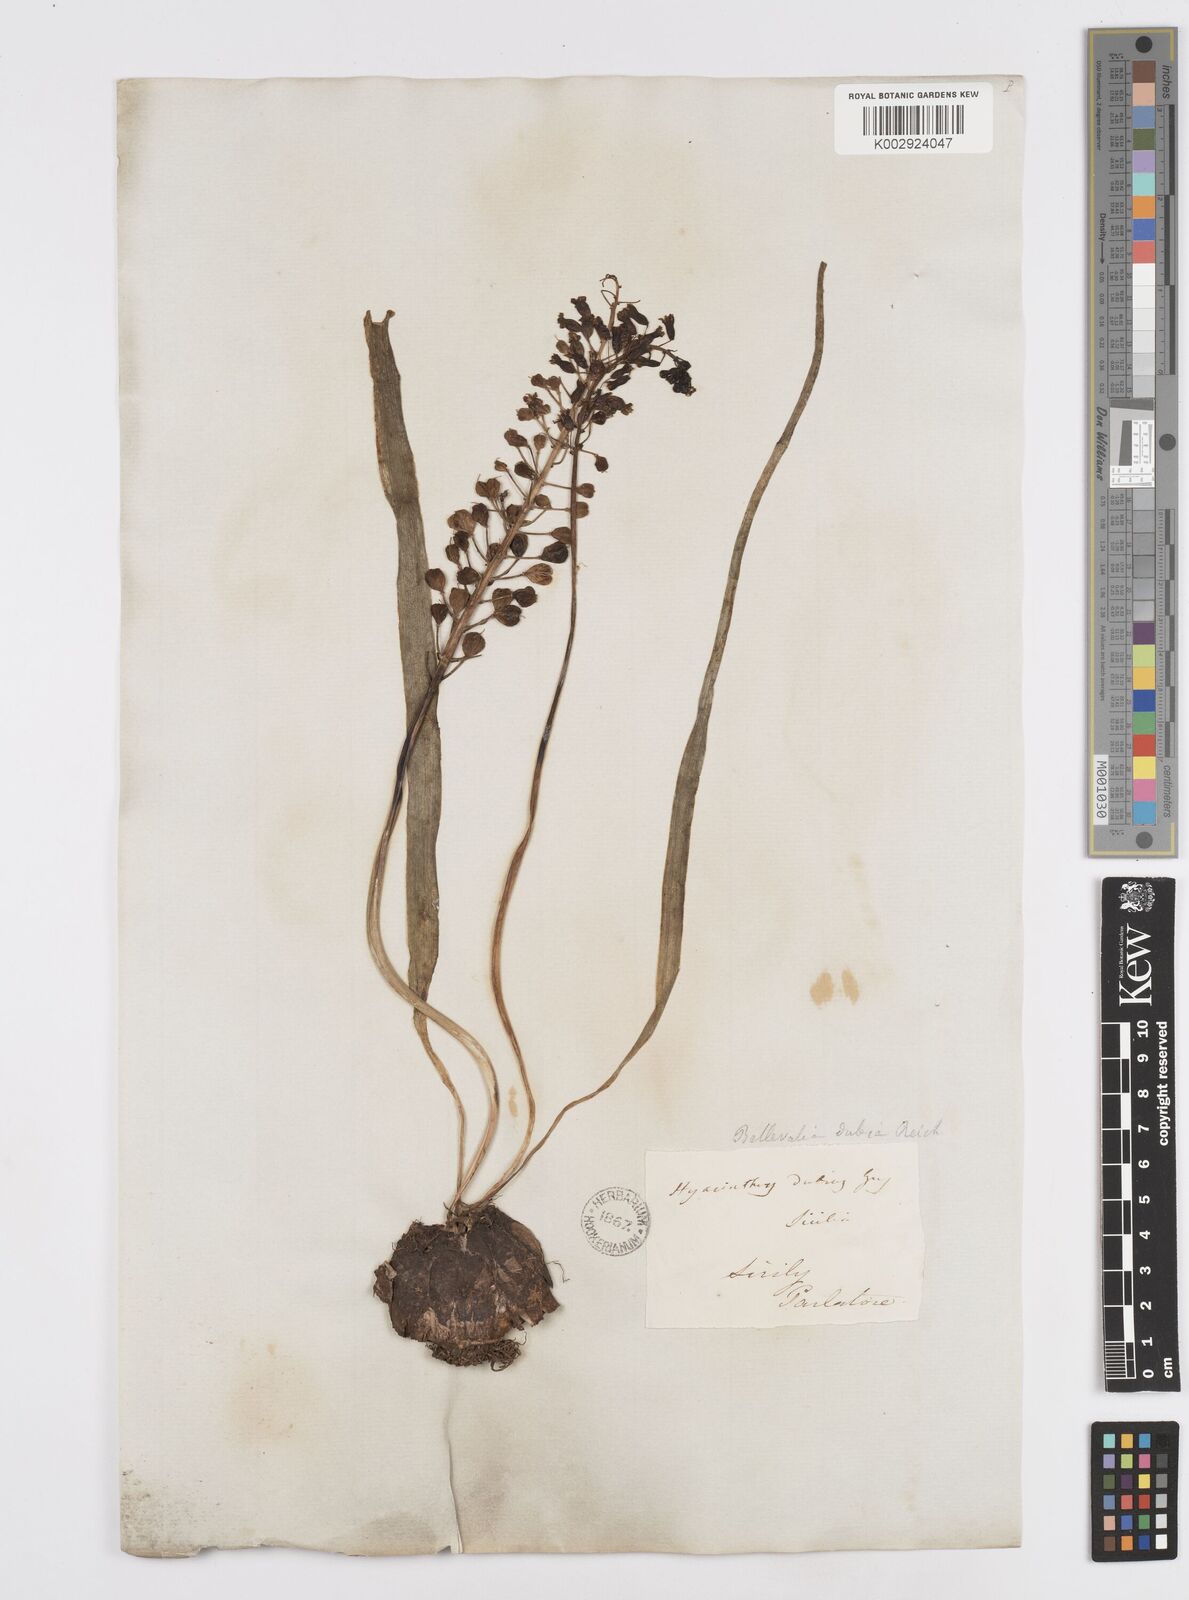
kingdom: Plantae
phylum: Tracheophyta
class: Liliopsida
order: Asparagales
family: Asparagaceae
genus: Bellevalia
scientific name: Bellevalia dubia
